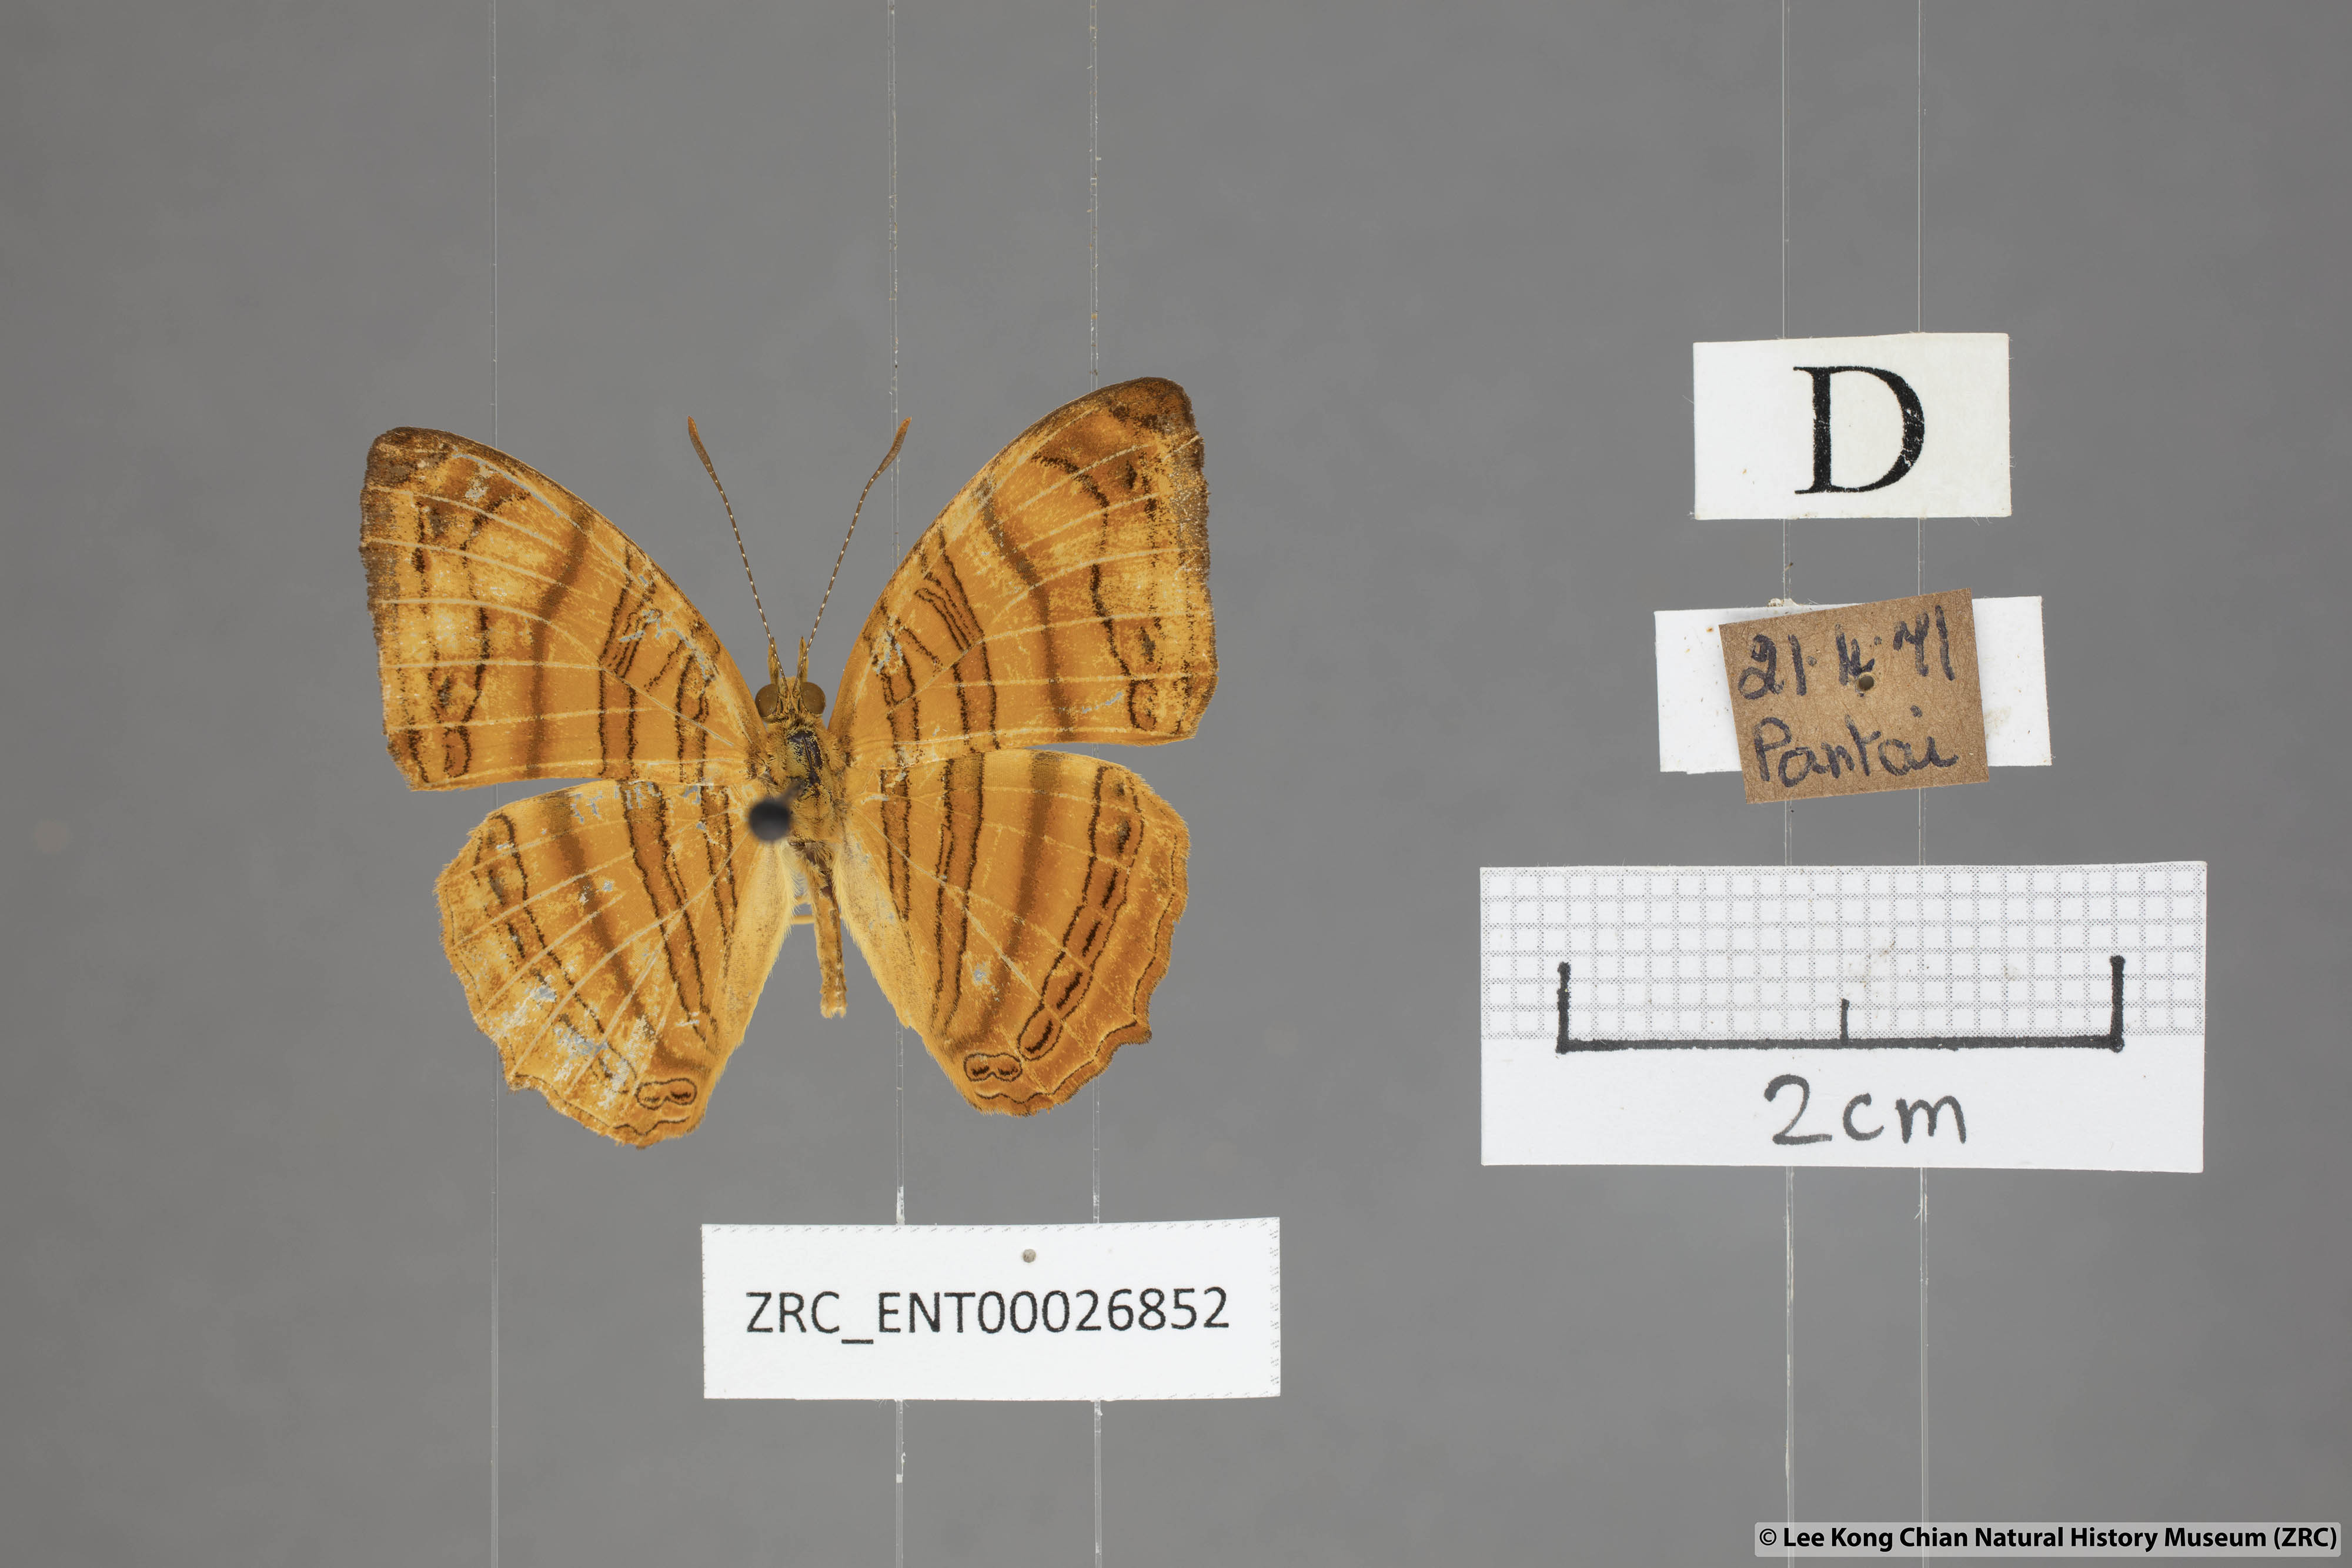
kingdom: Animalia
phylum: Arthropoda
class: Insecta
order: Lepidoptera
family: Nymphalidae
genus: Chersonesia
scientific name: Chersonesia rahria
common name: Wavy maplet
